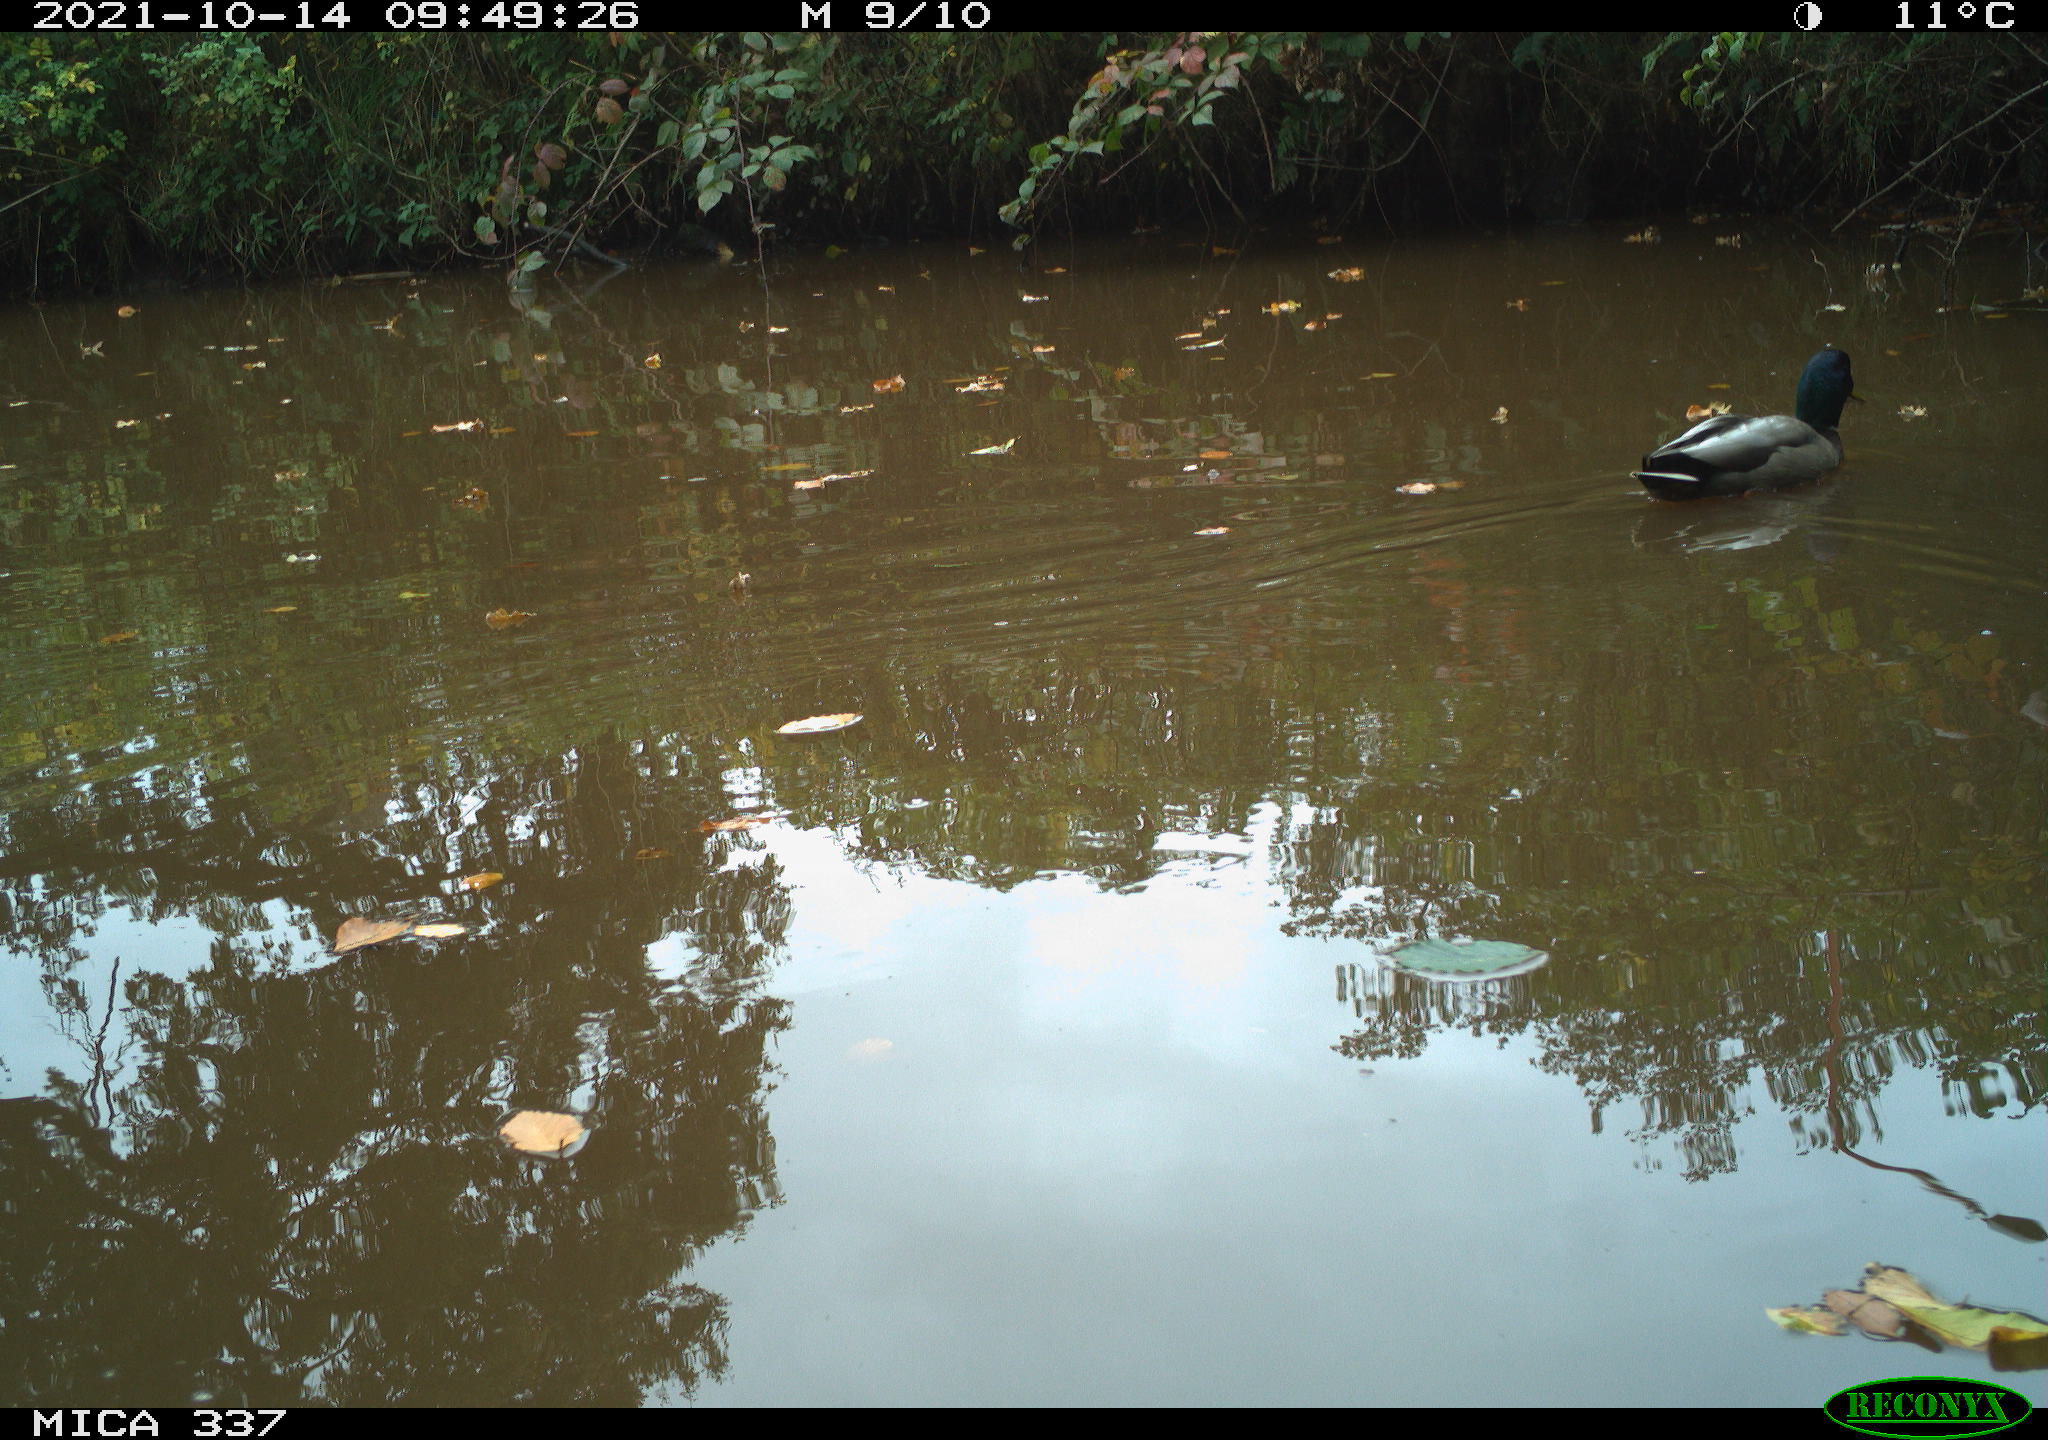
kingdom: Animalia
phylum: Chordata
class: Aves
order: Anseriformes
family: Anatidae
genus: Anas
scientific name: Anas platyrhynchos
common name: Mallard
